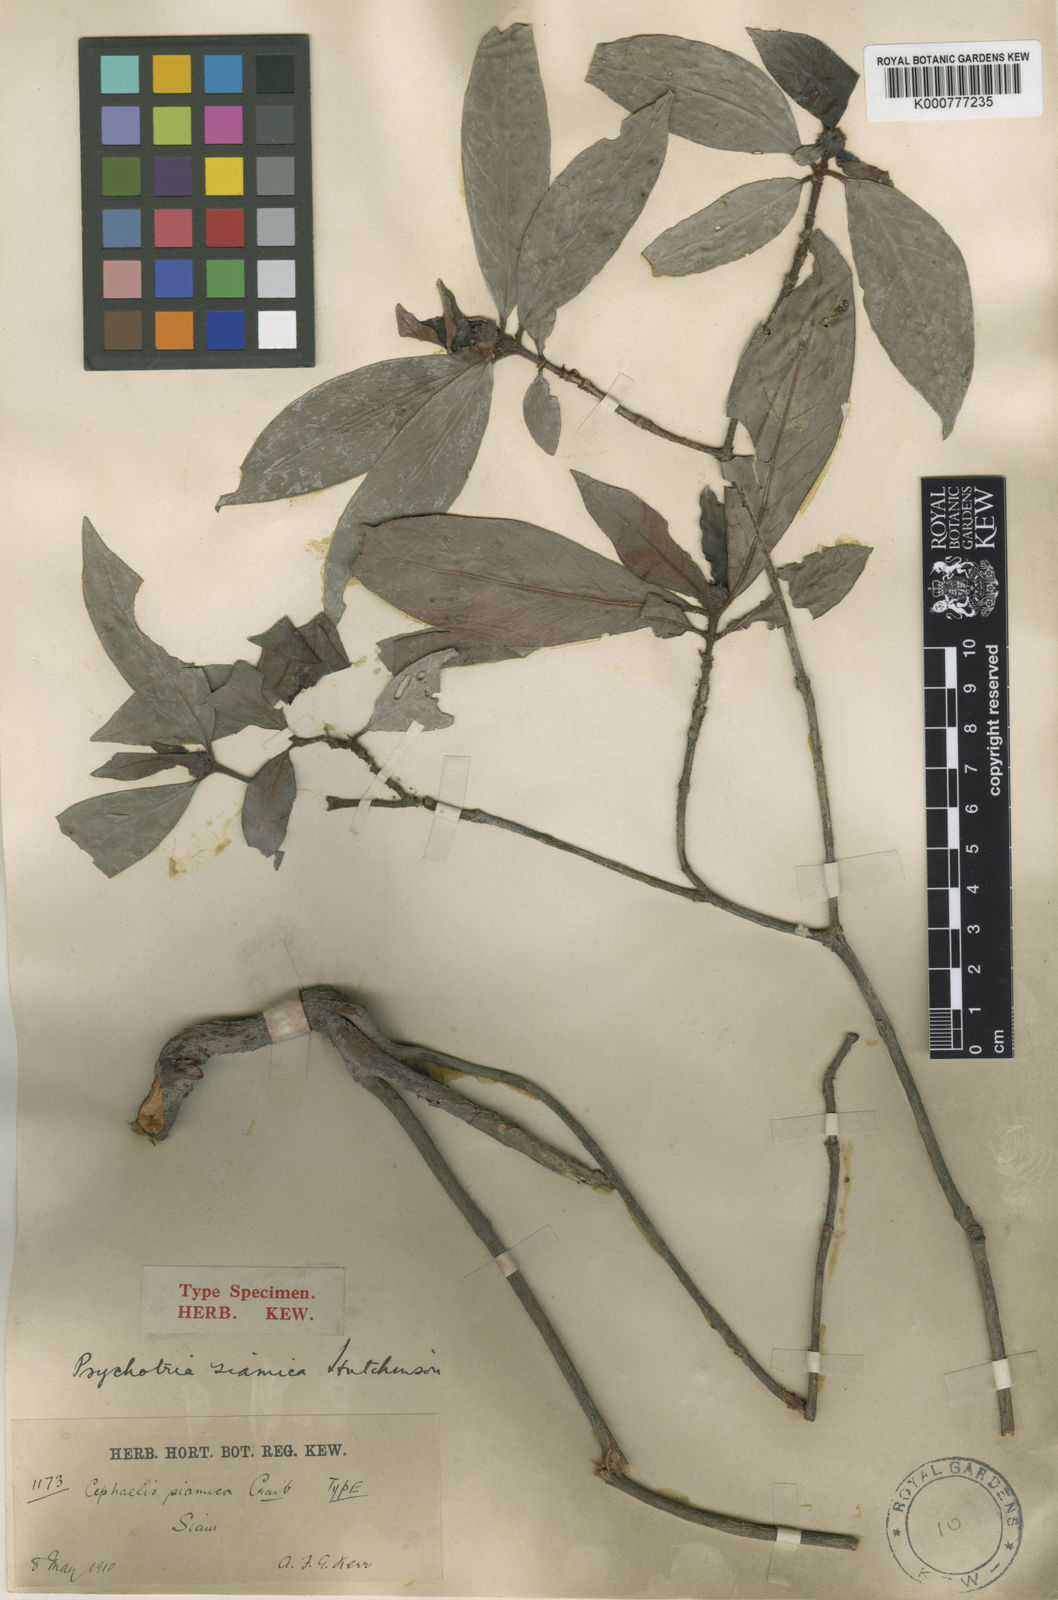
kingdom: Plantae
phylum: Tracheophyta
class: Magnoliopsida
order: Gentianales
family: Rubiaceae
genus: Psychotria
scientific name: Psychotria
